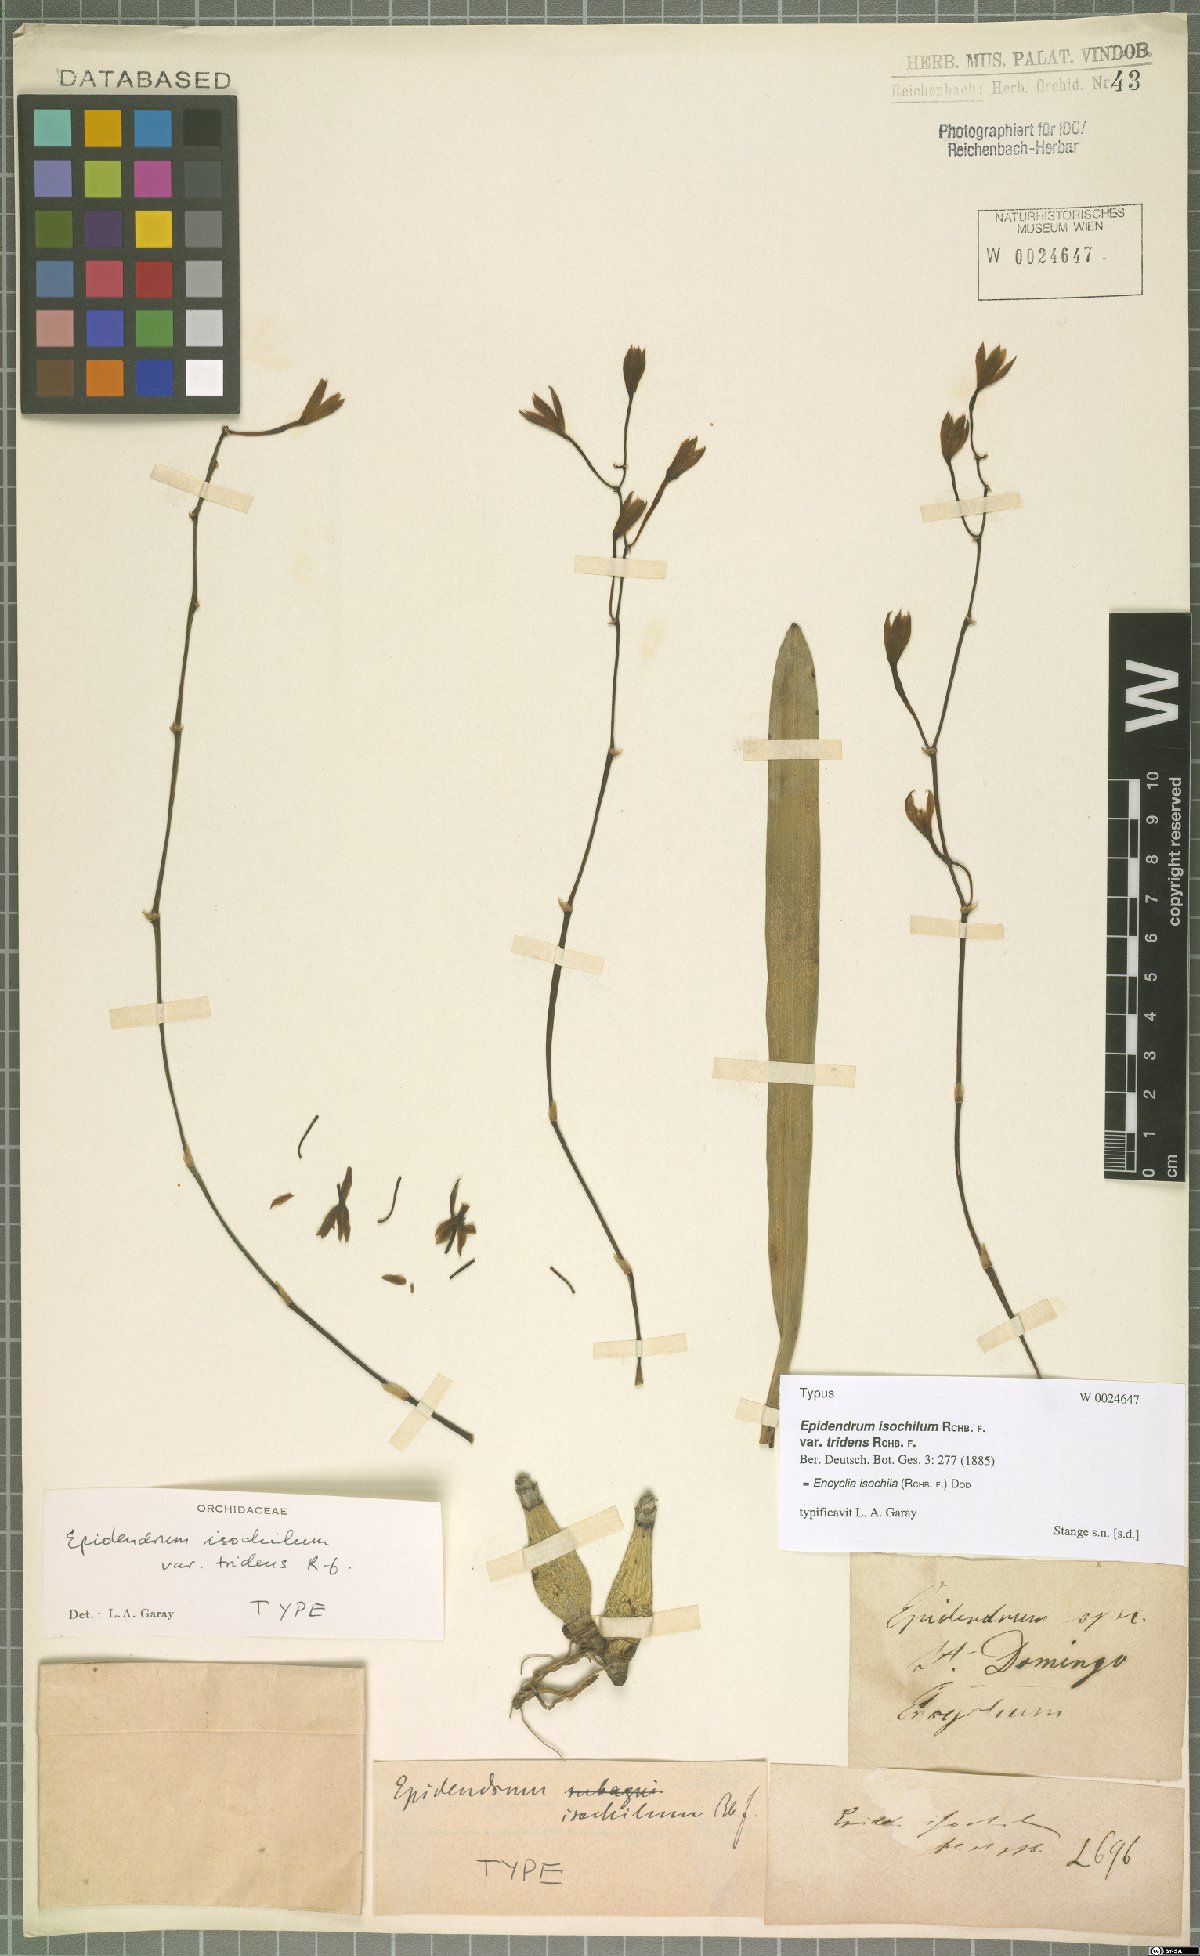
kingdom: Plantae
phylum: Tracheophyta
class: Liliopsida
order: Asparagales
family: Orchidaceae
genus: Encyclia
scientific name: Encyclia isochila
